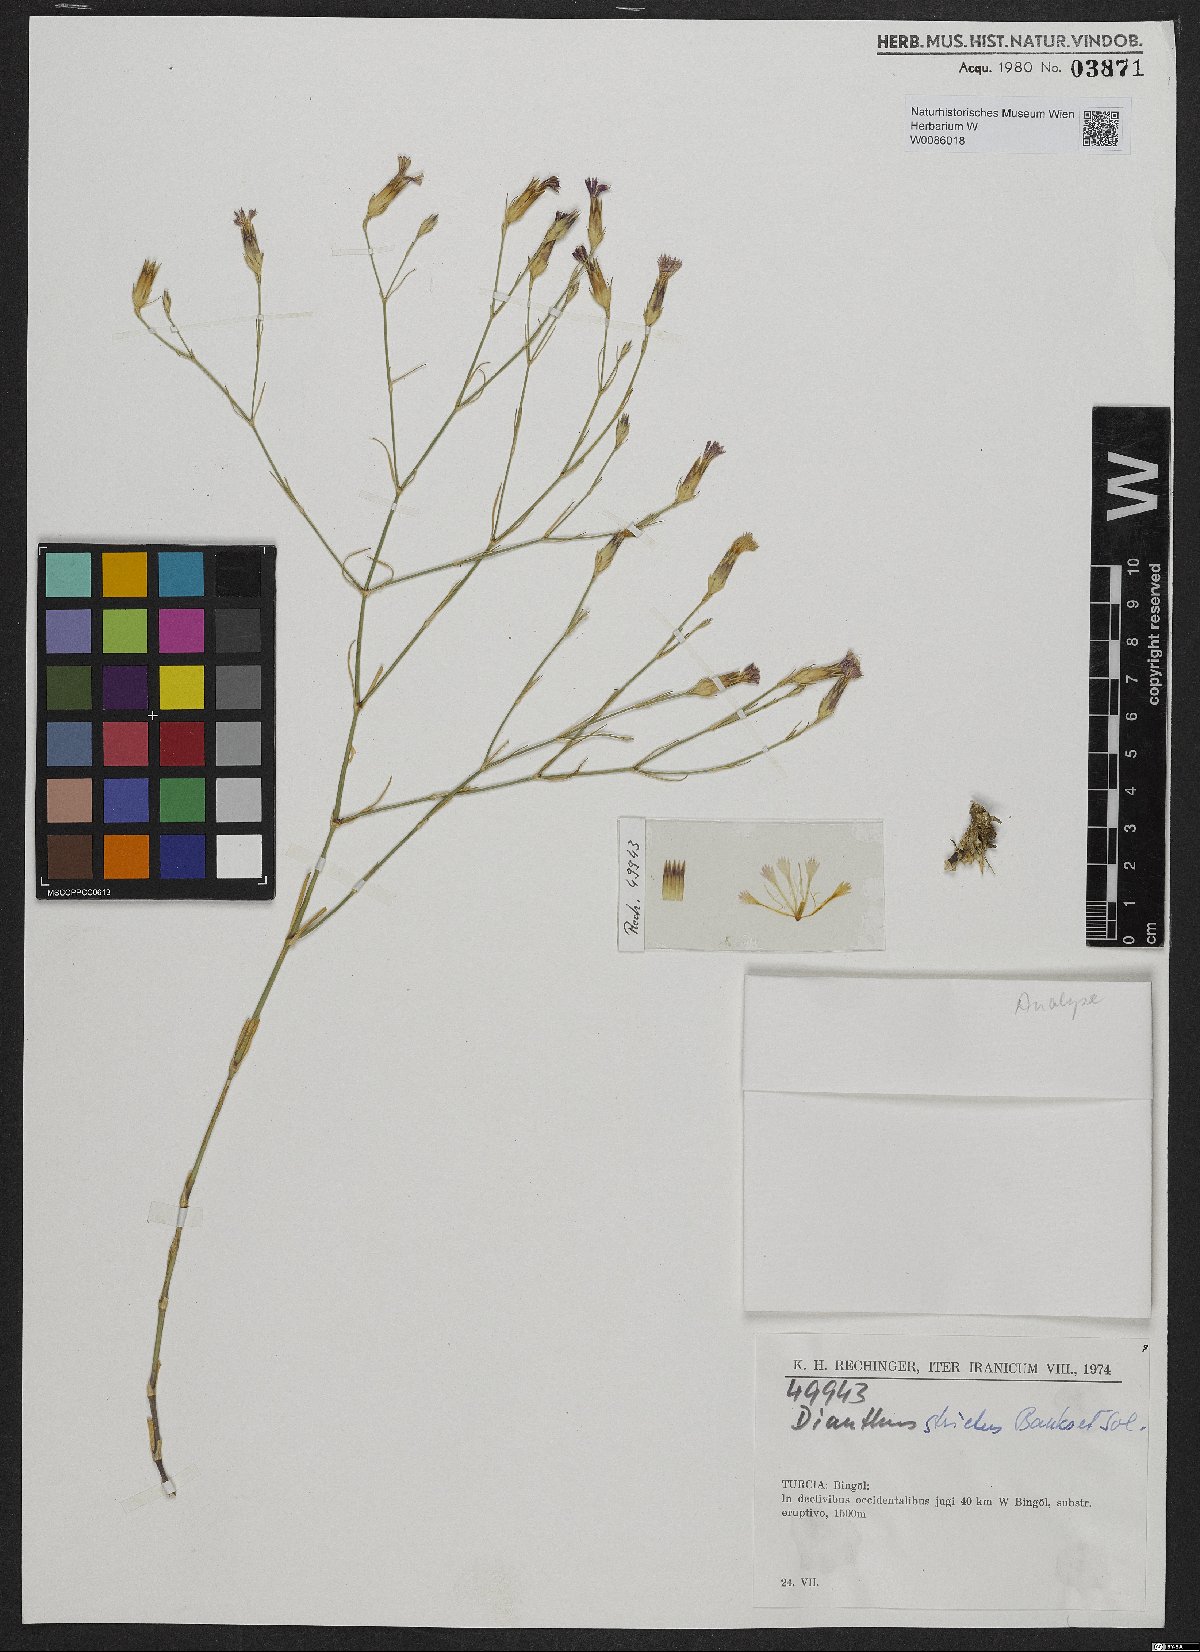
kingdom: Plantae
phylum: Tracheophyta
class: Magnoliopsida
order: Caryophyllales
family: Caryophyllaceae
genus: Dianthus
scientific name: Dianthus strictus
